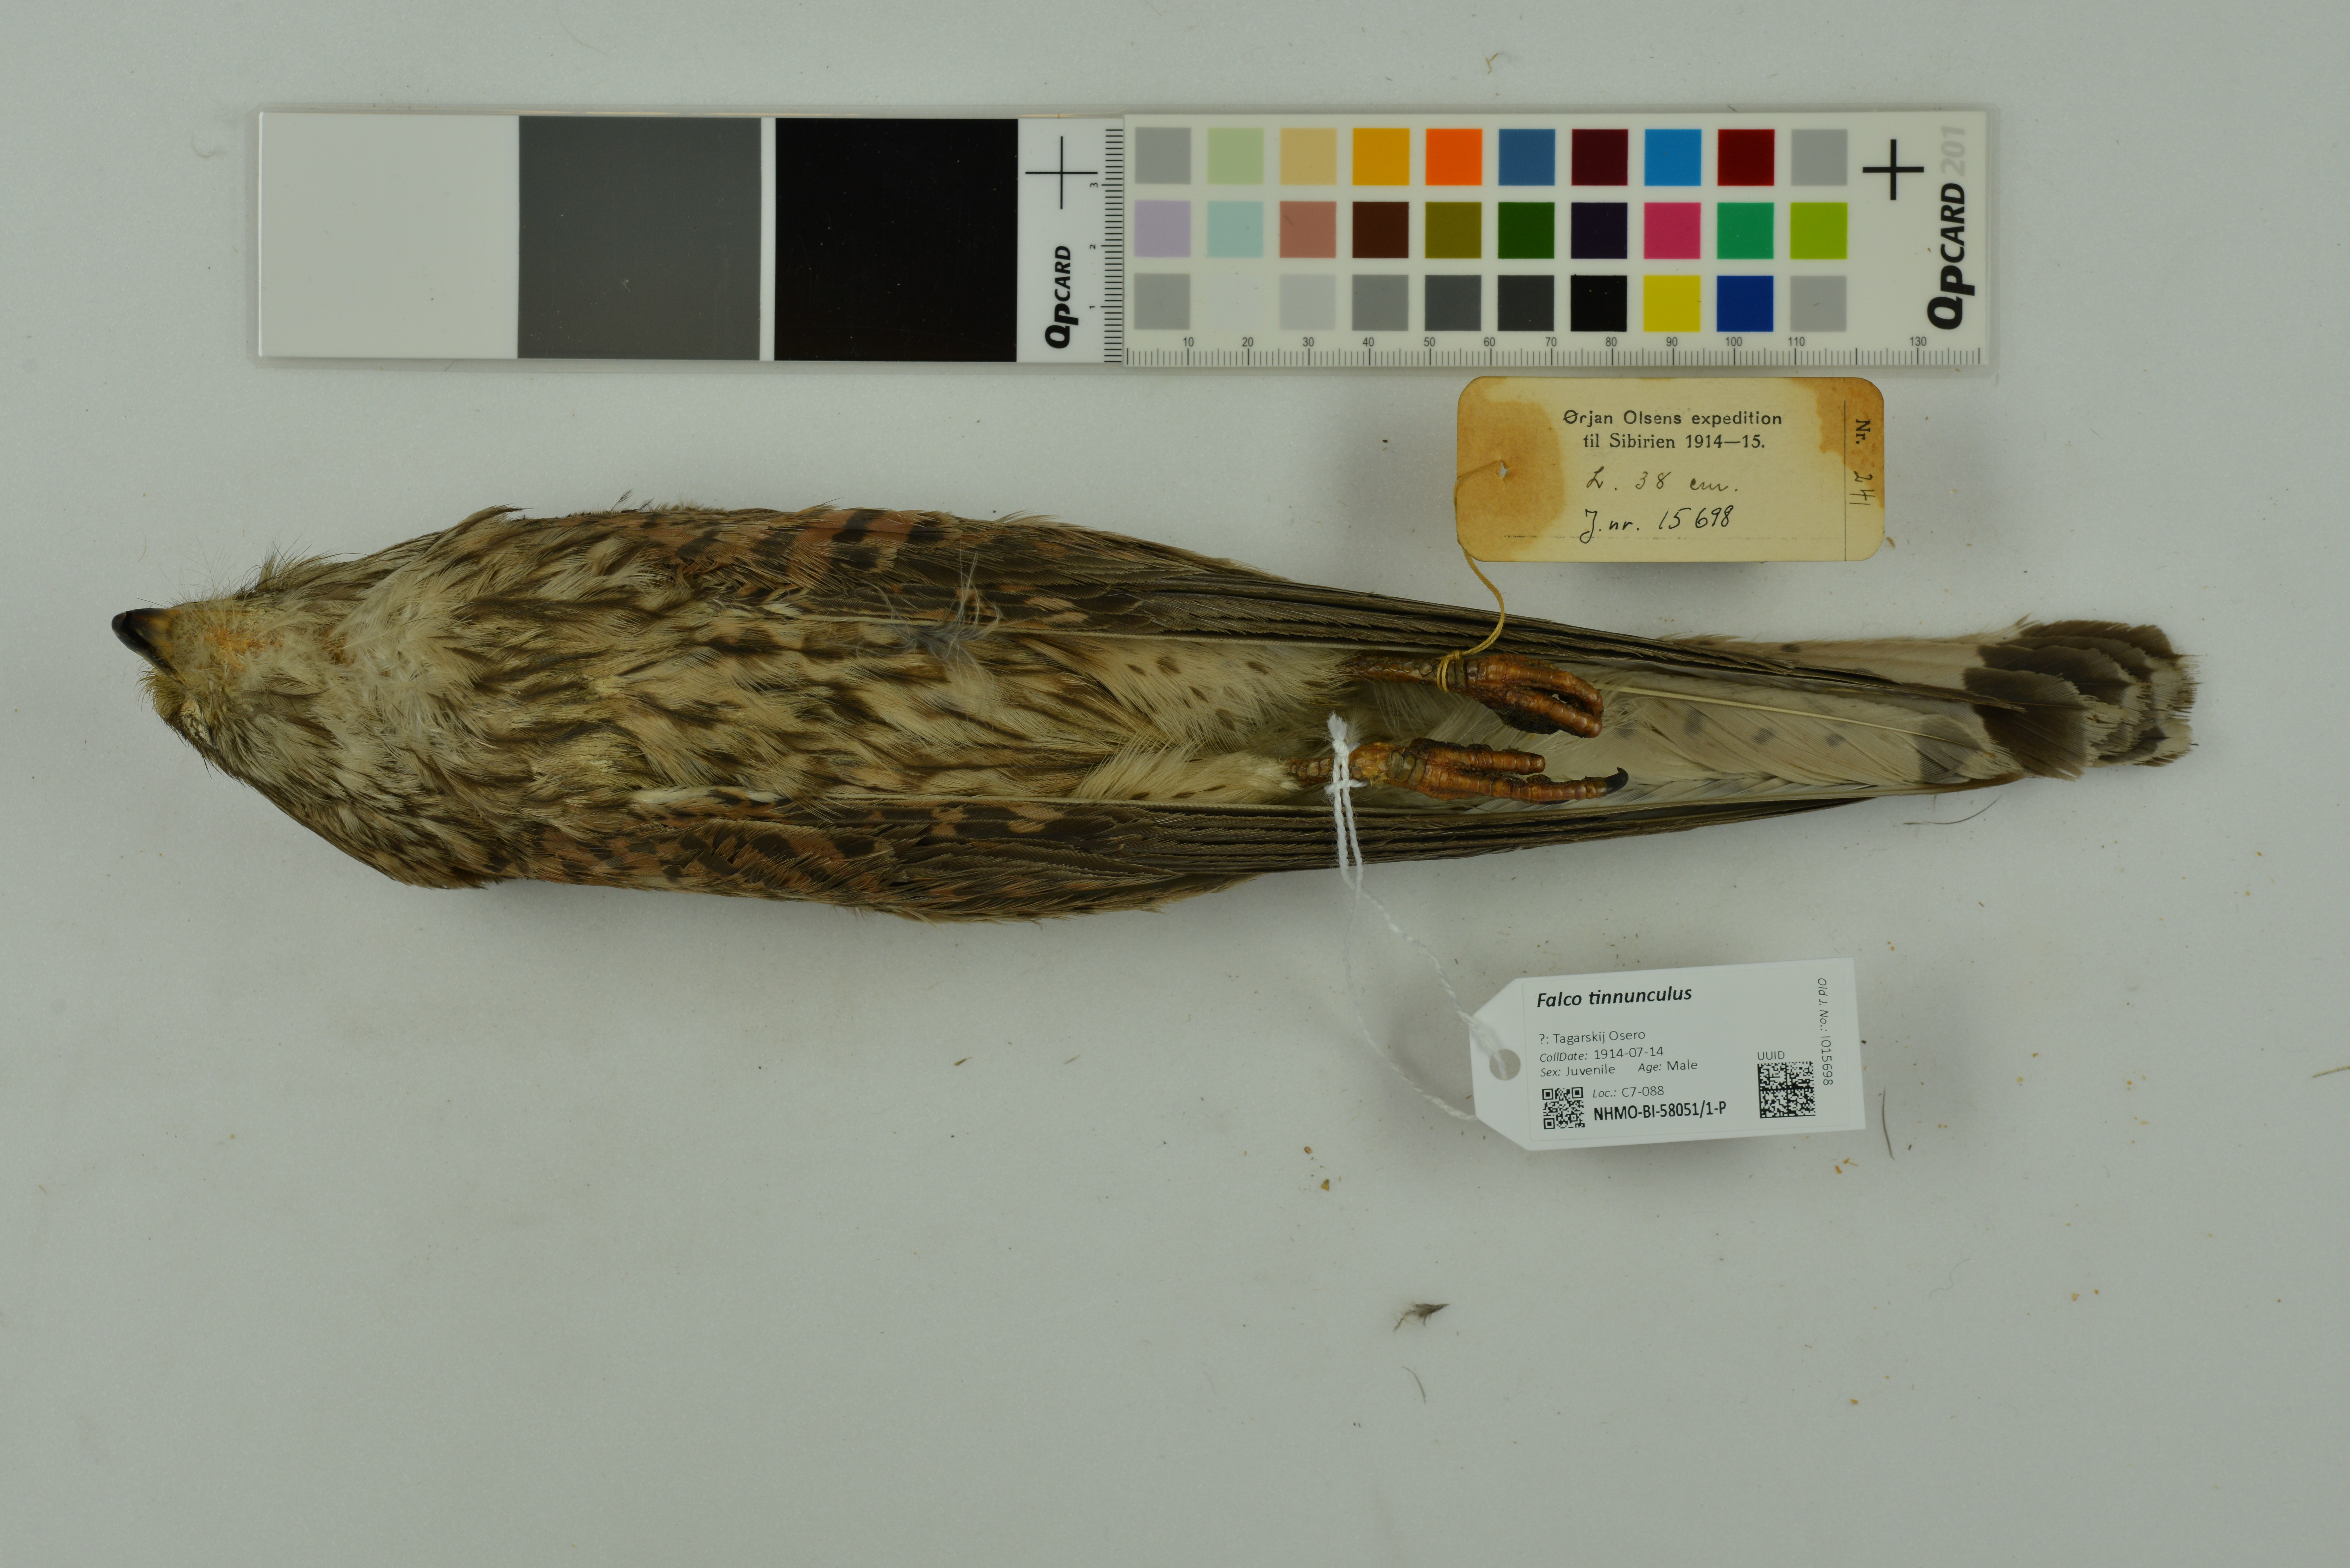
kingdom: Animalia
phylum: Chordata
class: Aves
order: Falconiformes
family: Falconidae
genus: Falco
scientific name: Falco tinnunculus
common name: Common kestrel
